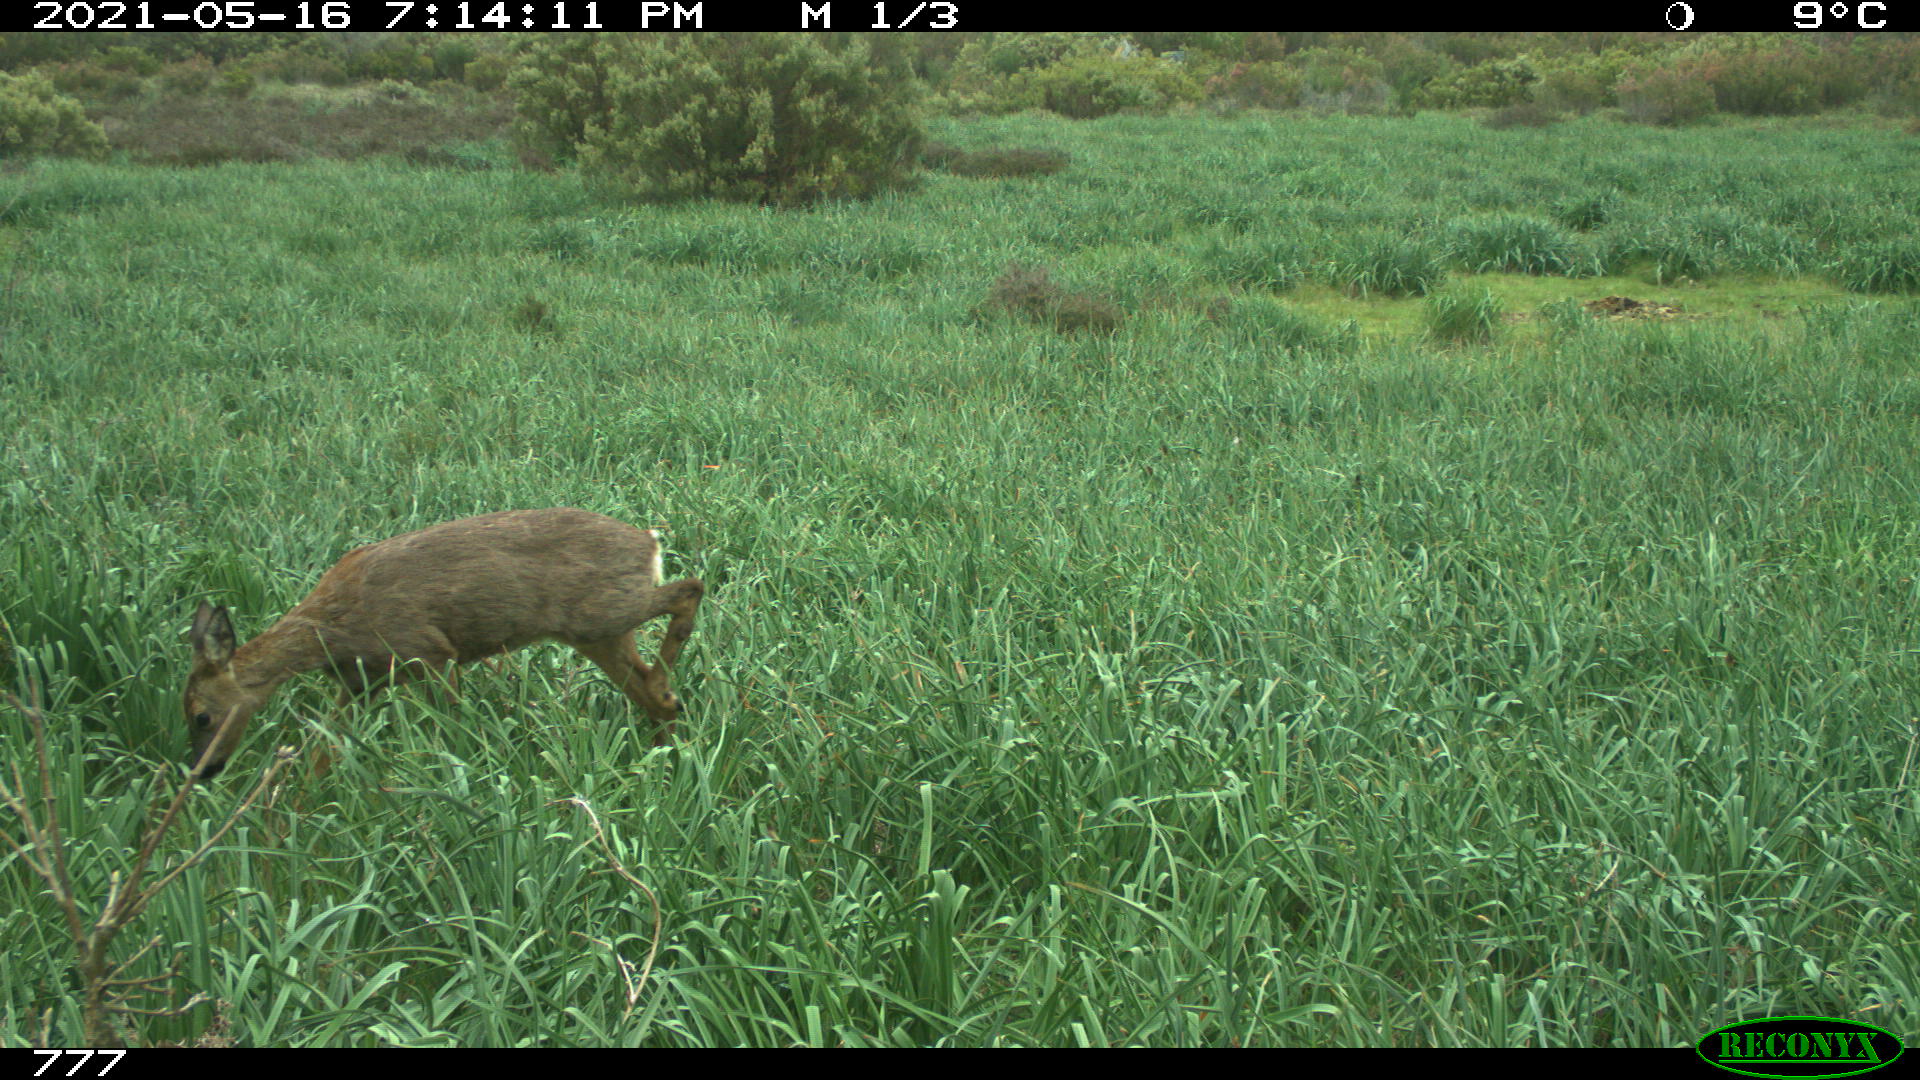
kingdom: Animalia
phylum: Chordata
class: Mammalia
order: Artiodactyla
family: Cervidae
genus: Capreolus
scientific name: Capreolus capreolus
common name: Western roe deer
